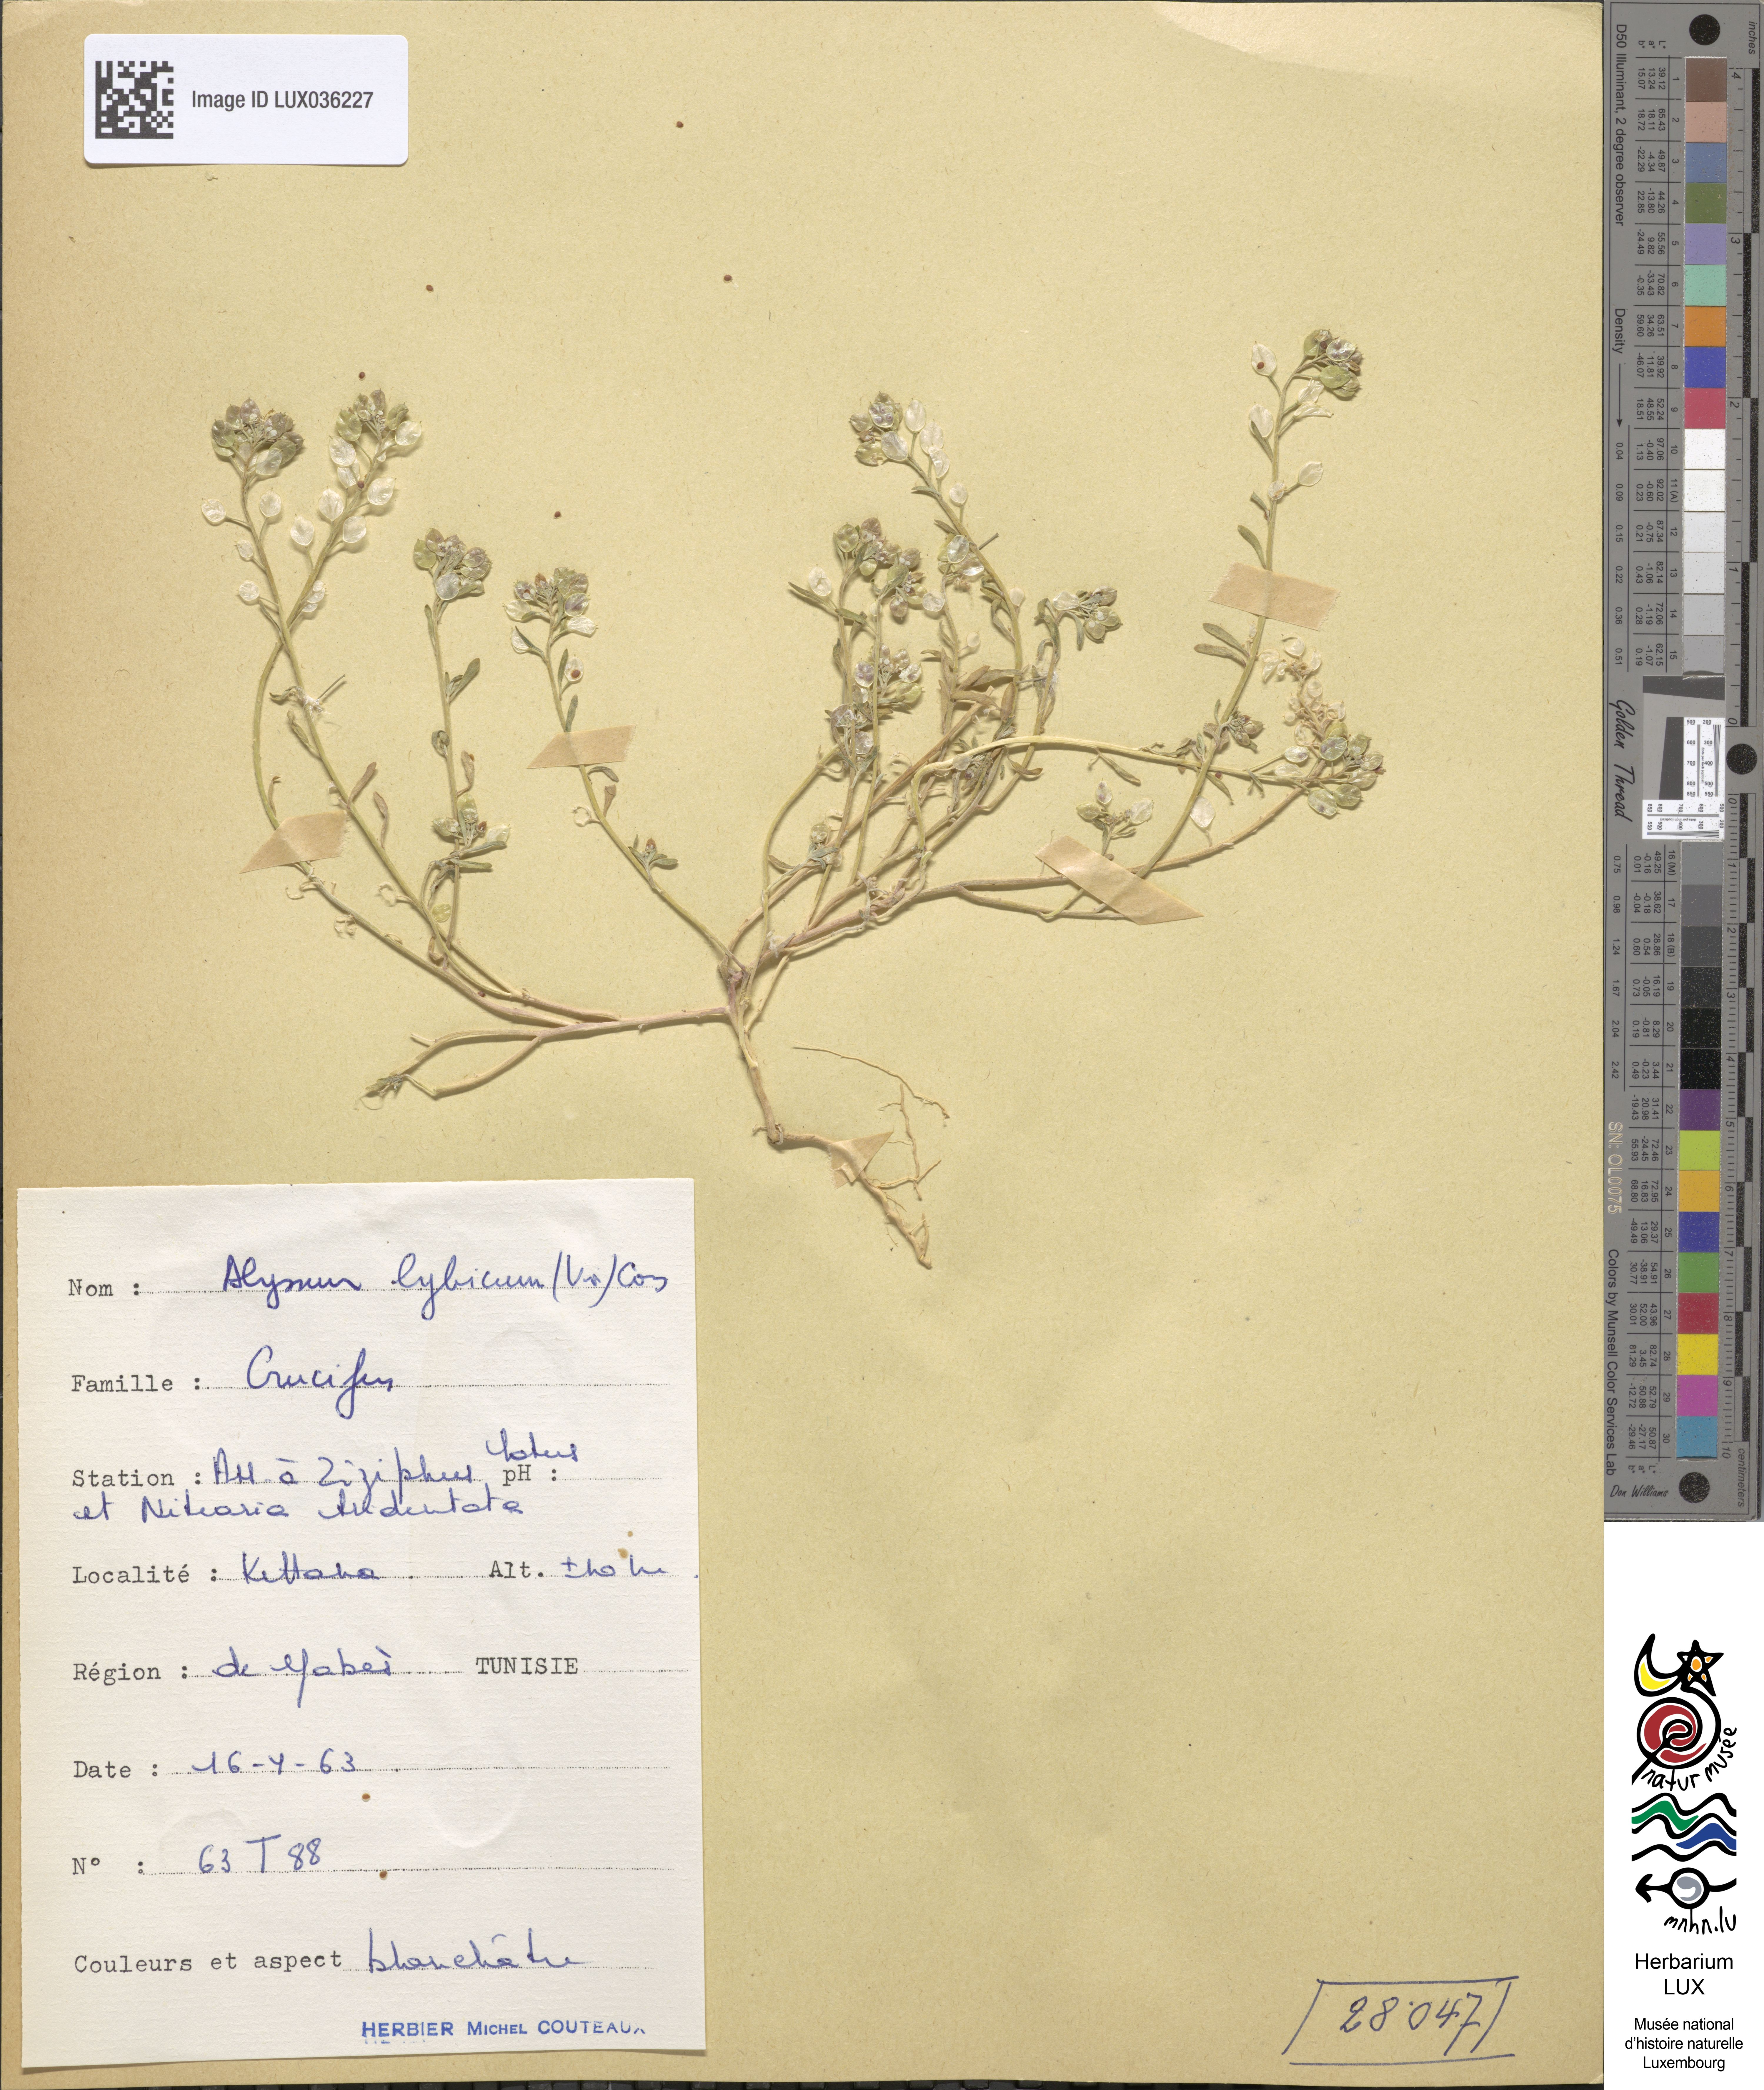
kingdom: Plantae
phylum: Tracheophyta
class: Magnoliopsida
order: Brassicales
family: Brassicaceae
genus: Lobularia
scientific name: Lobularia libyca
